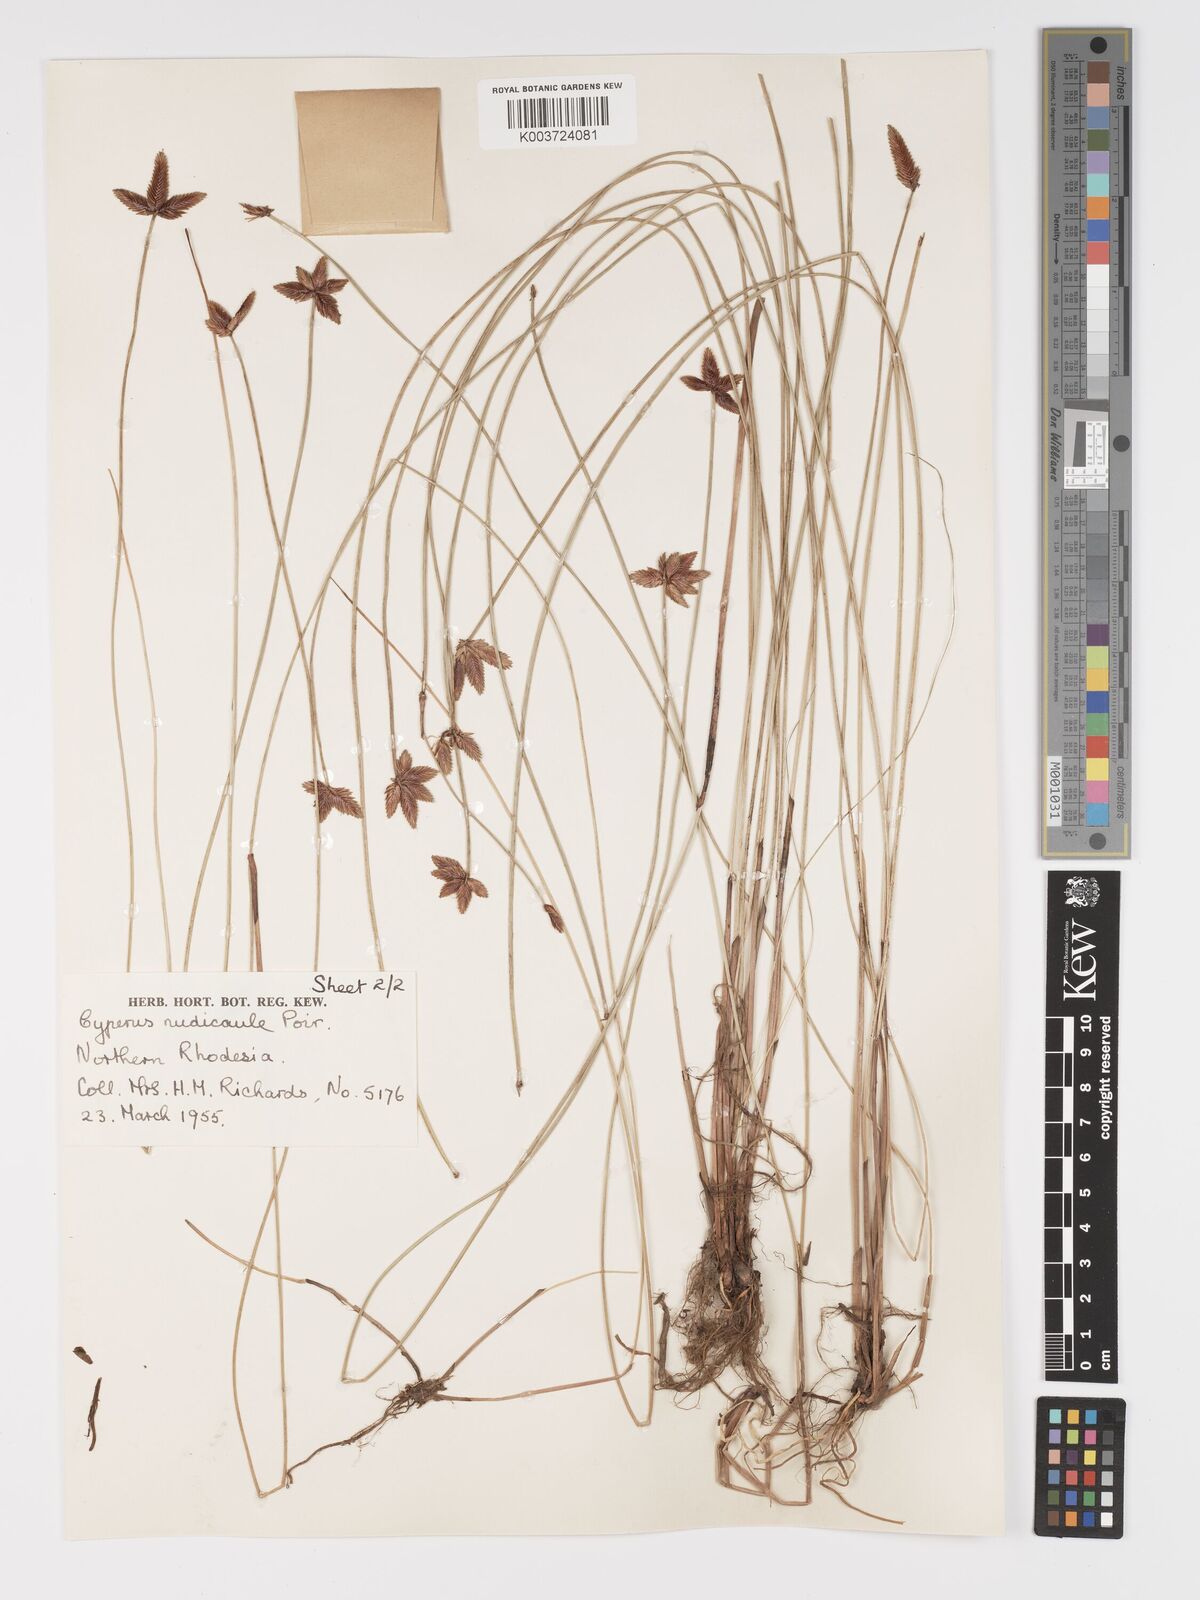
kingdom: Plantae
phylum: Tracheophyta
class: Liliopsida
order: Poales
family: Cyperaceae
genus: Cyperus
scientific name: Cyperus compressus
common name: Poorland flatsedge
